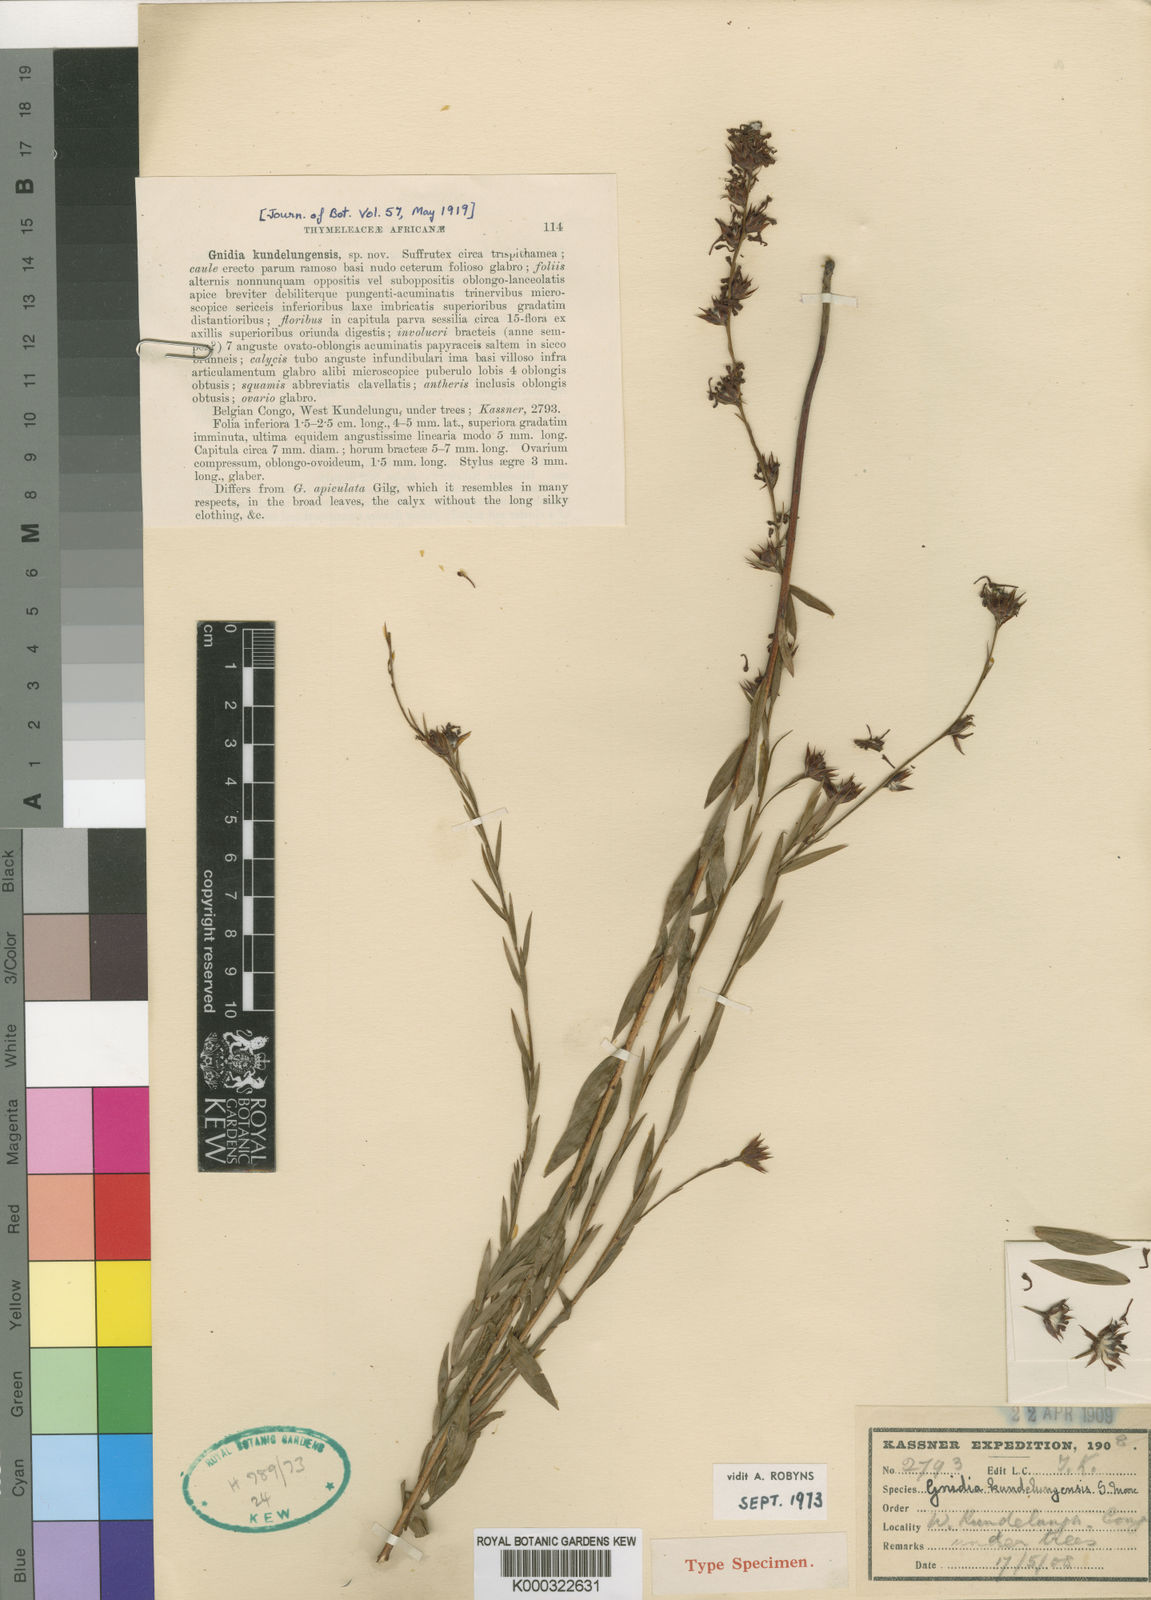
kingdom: Plantae
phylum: Tracheophyta
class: Magnoliopsida
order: Malvales
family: Thymelaeaceae
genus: Gnidia
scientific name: Gnidia kundelungensis
